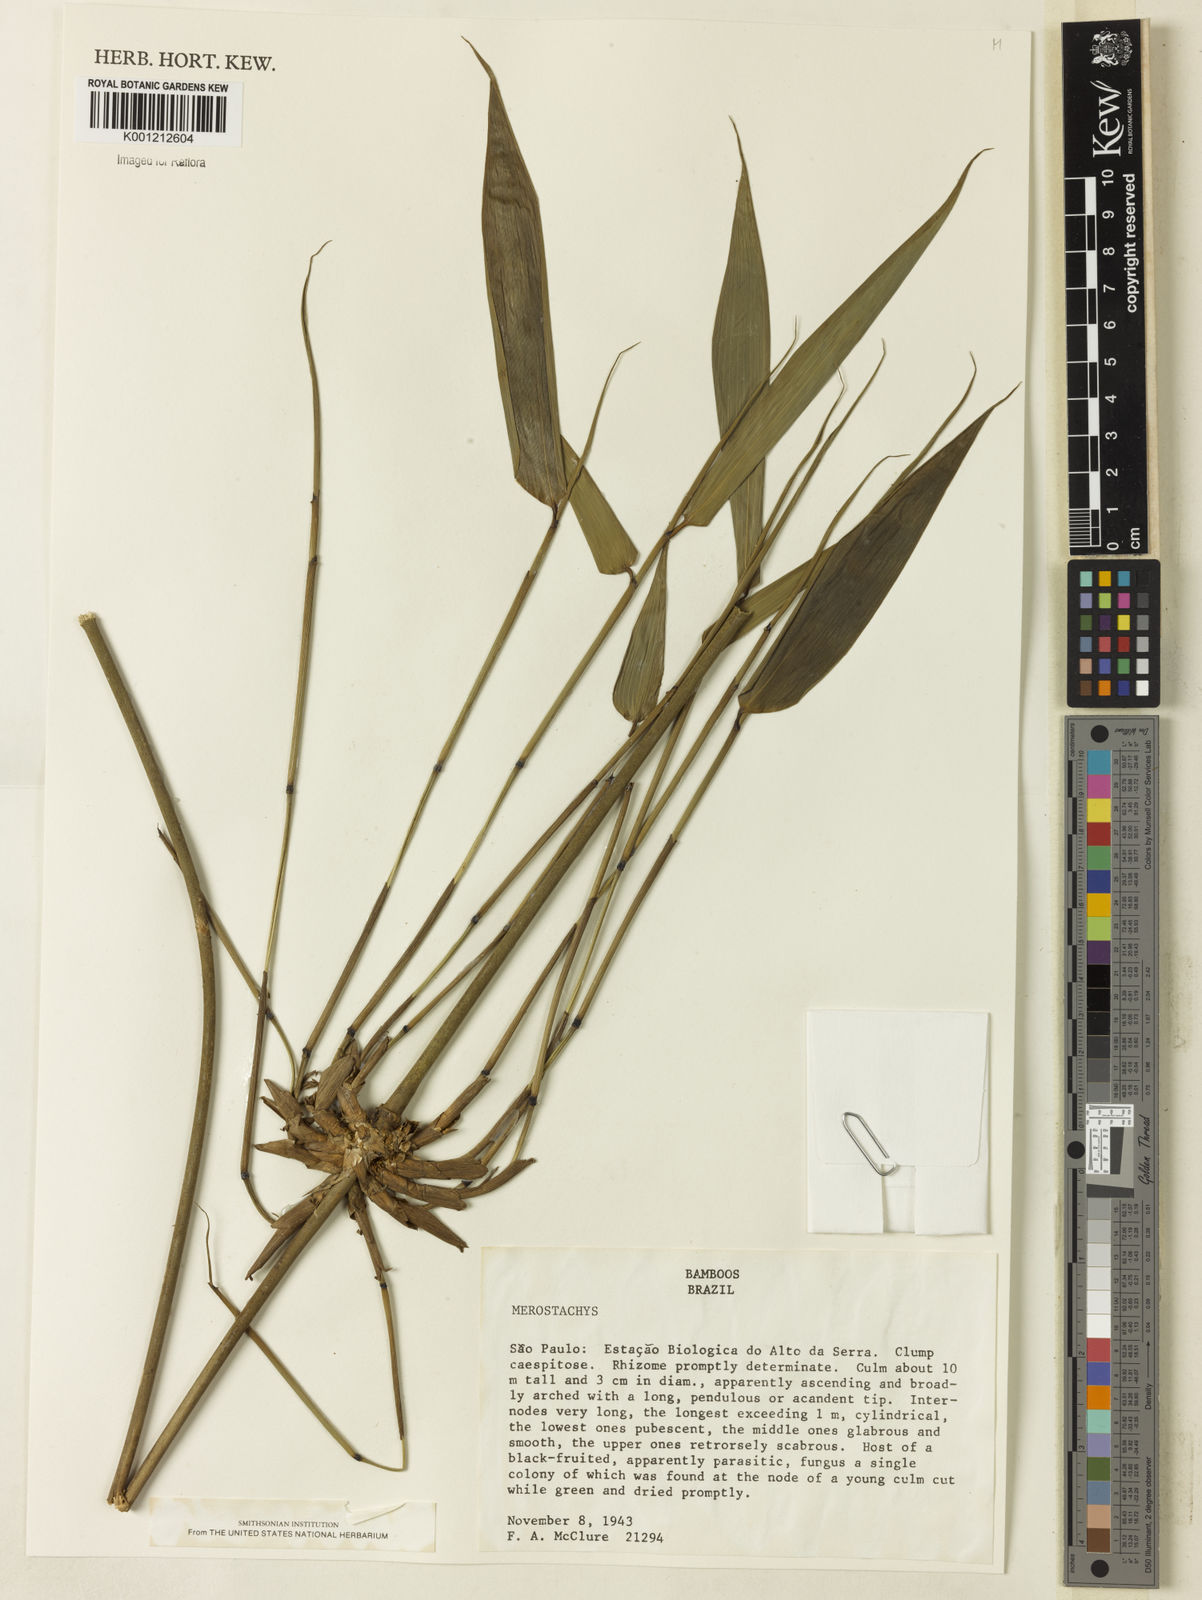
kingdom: Plantae
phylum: Tracheophyta
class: Liliopsida
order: Poales
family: Poaceae
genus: Merostachys
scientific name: Merostachys
